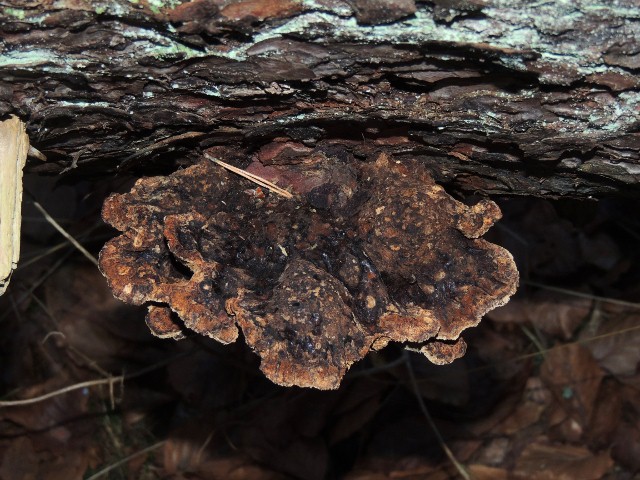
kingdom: Fungi
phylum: Basidiomycota
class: Agaricomycetes
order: Polyporales
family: Ischnodermataceae
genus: Ischnoderma
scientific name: Ischnoderma benzoinum
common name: gran-tjæreporesvamp
